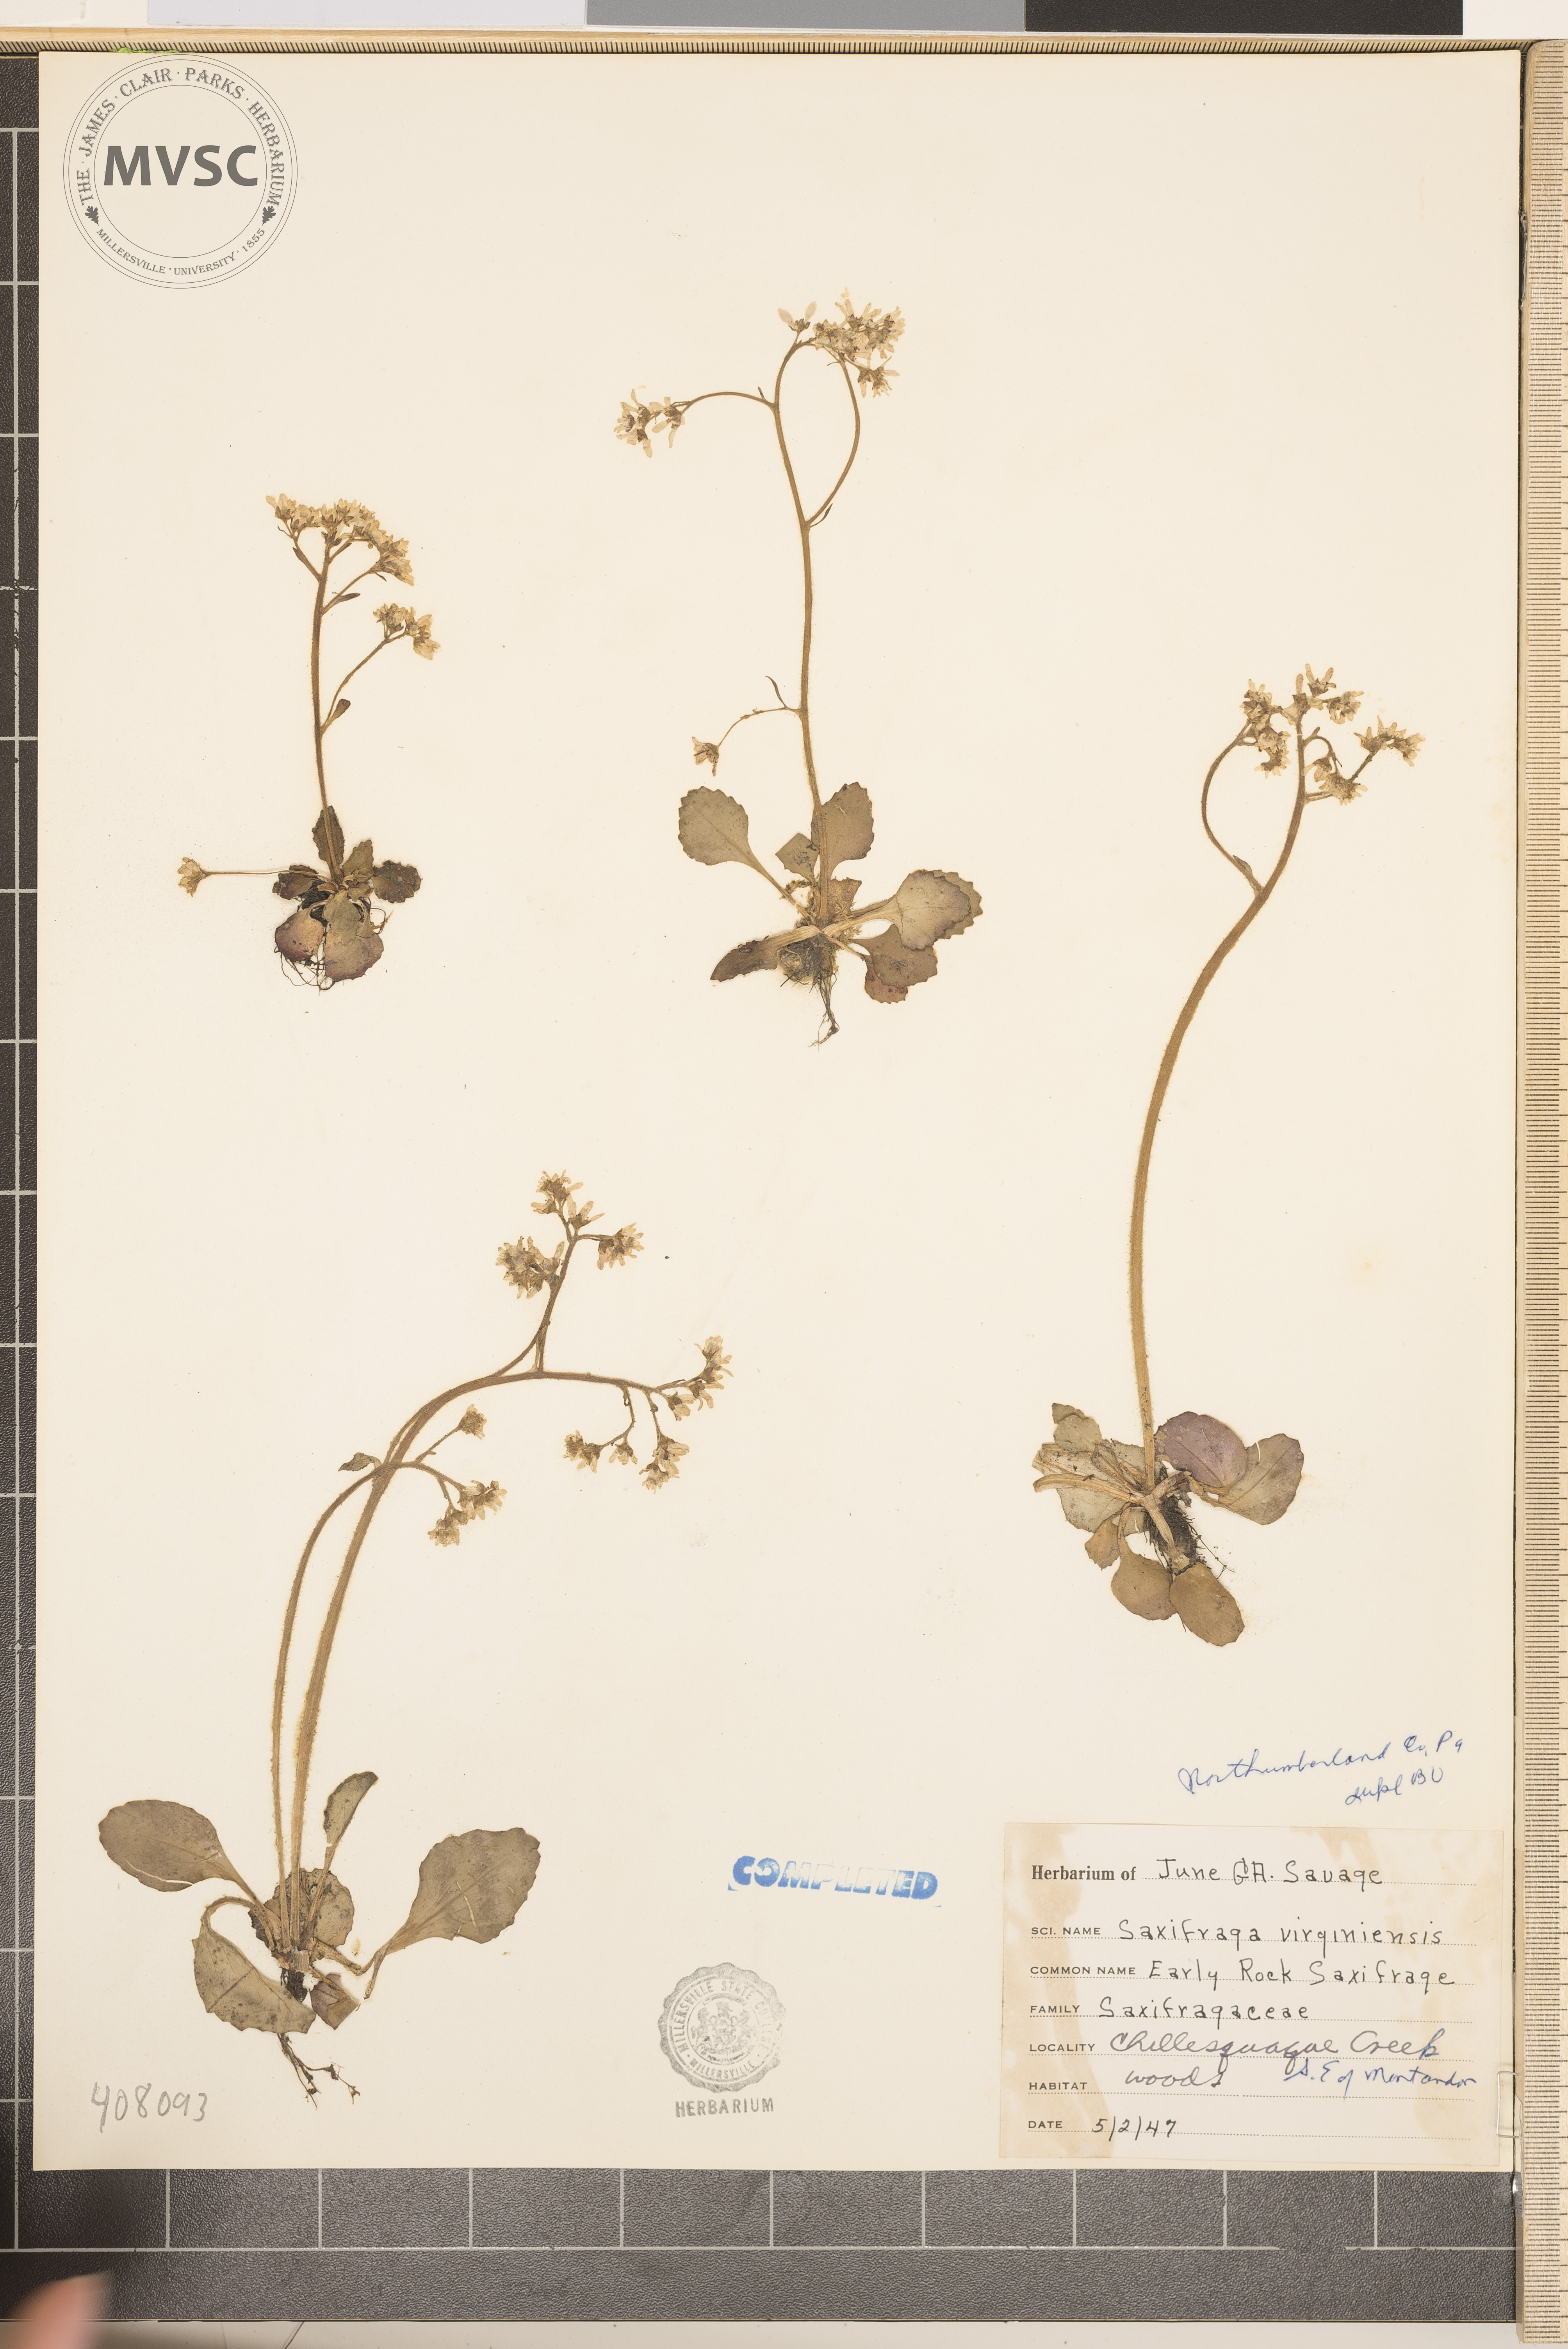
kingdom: Plantae
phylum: Tracheophyta
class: Magnoliopsida
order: Saxifragales
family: Saxifragaceae
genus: Micranthes
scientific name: Micranthes virginiensis
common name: Early saxifrage
